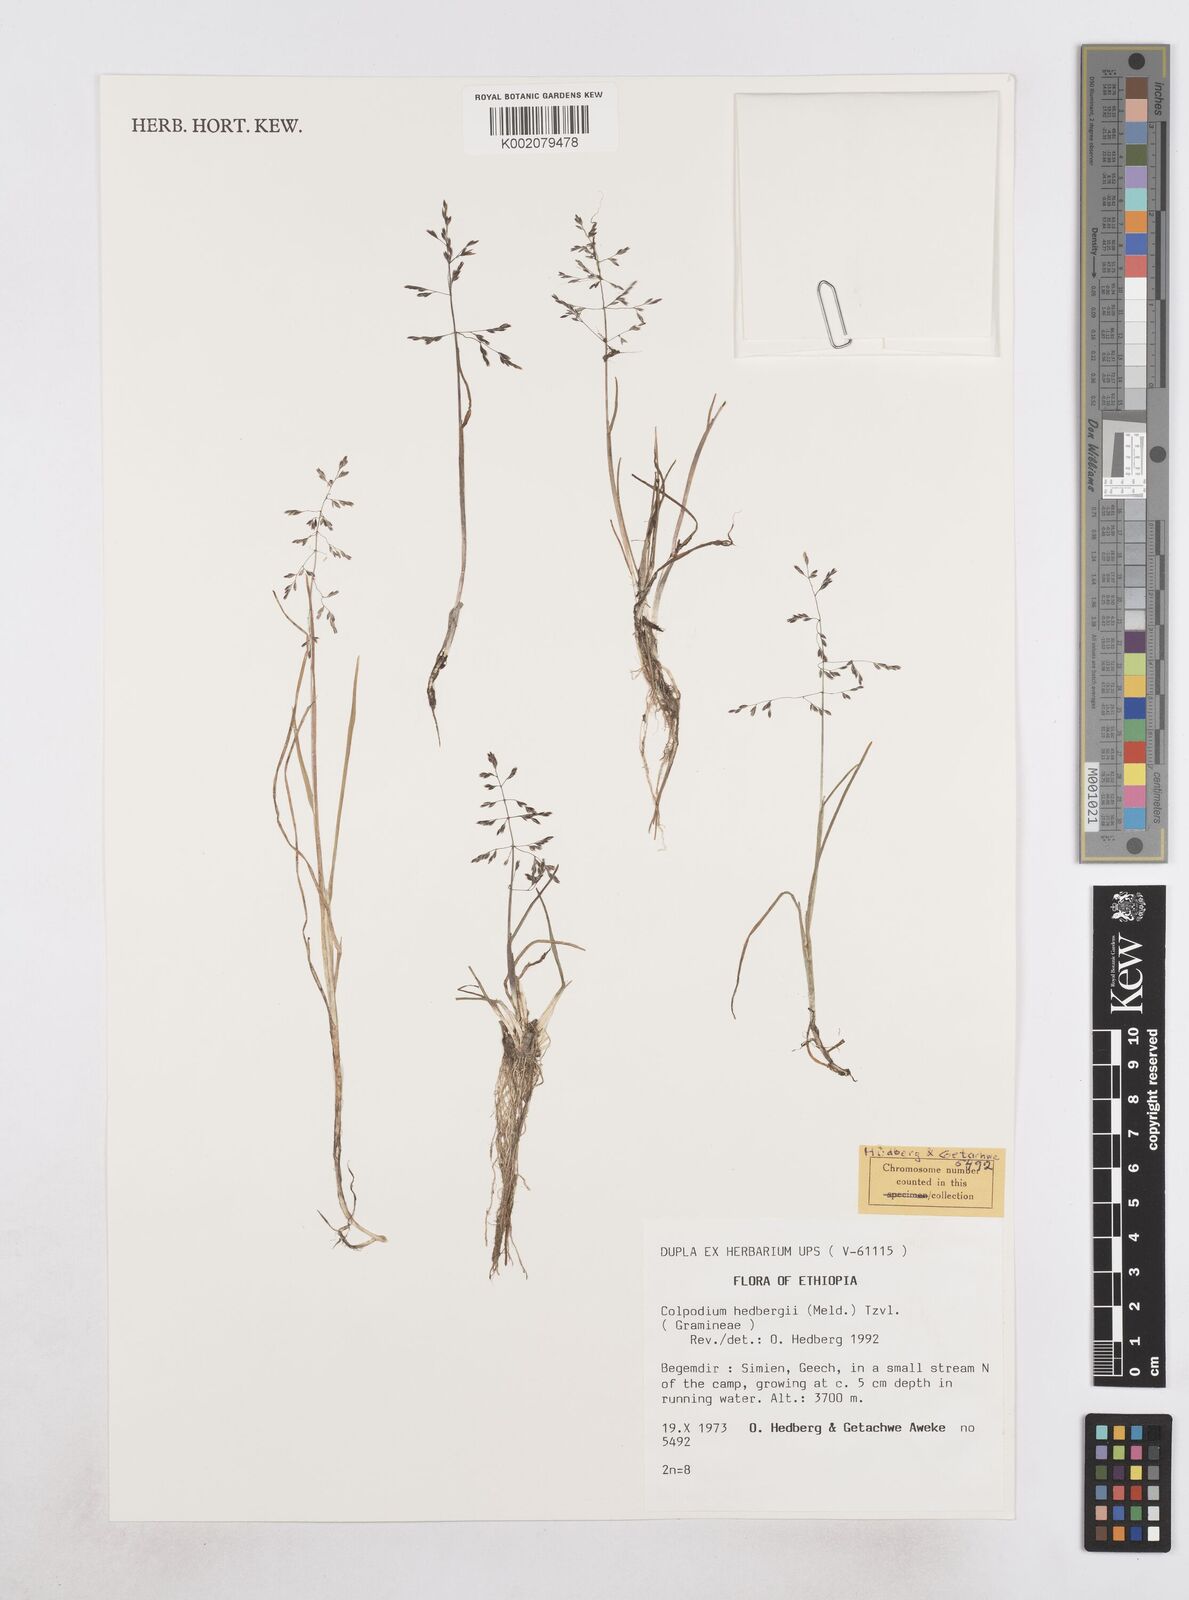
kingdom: Plantae
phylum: Tracheophyta
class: Liliopsida
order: Poales
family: Poaceae
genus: Colpodium
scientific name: Colpodium hedbergii
